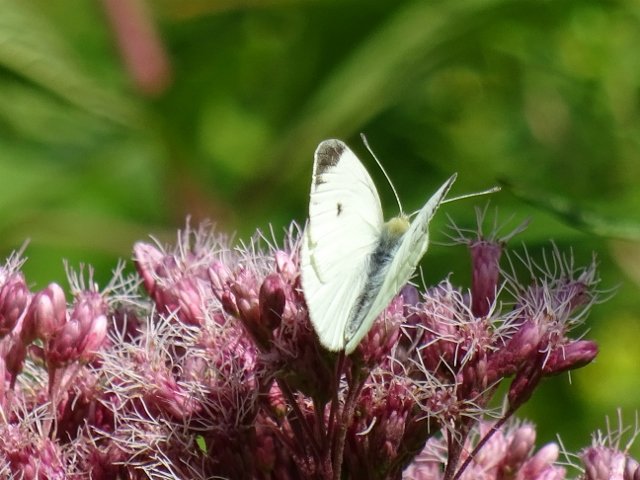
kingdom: Animalia
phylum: Arthropoda
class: Insecta
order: Lepidoptera
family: Pieridae
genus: Pieris
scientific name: Pieris rapae
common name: Cabbage White
